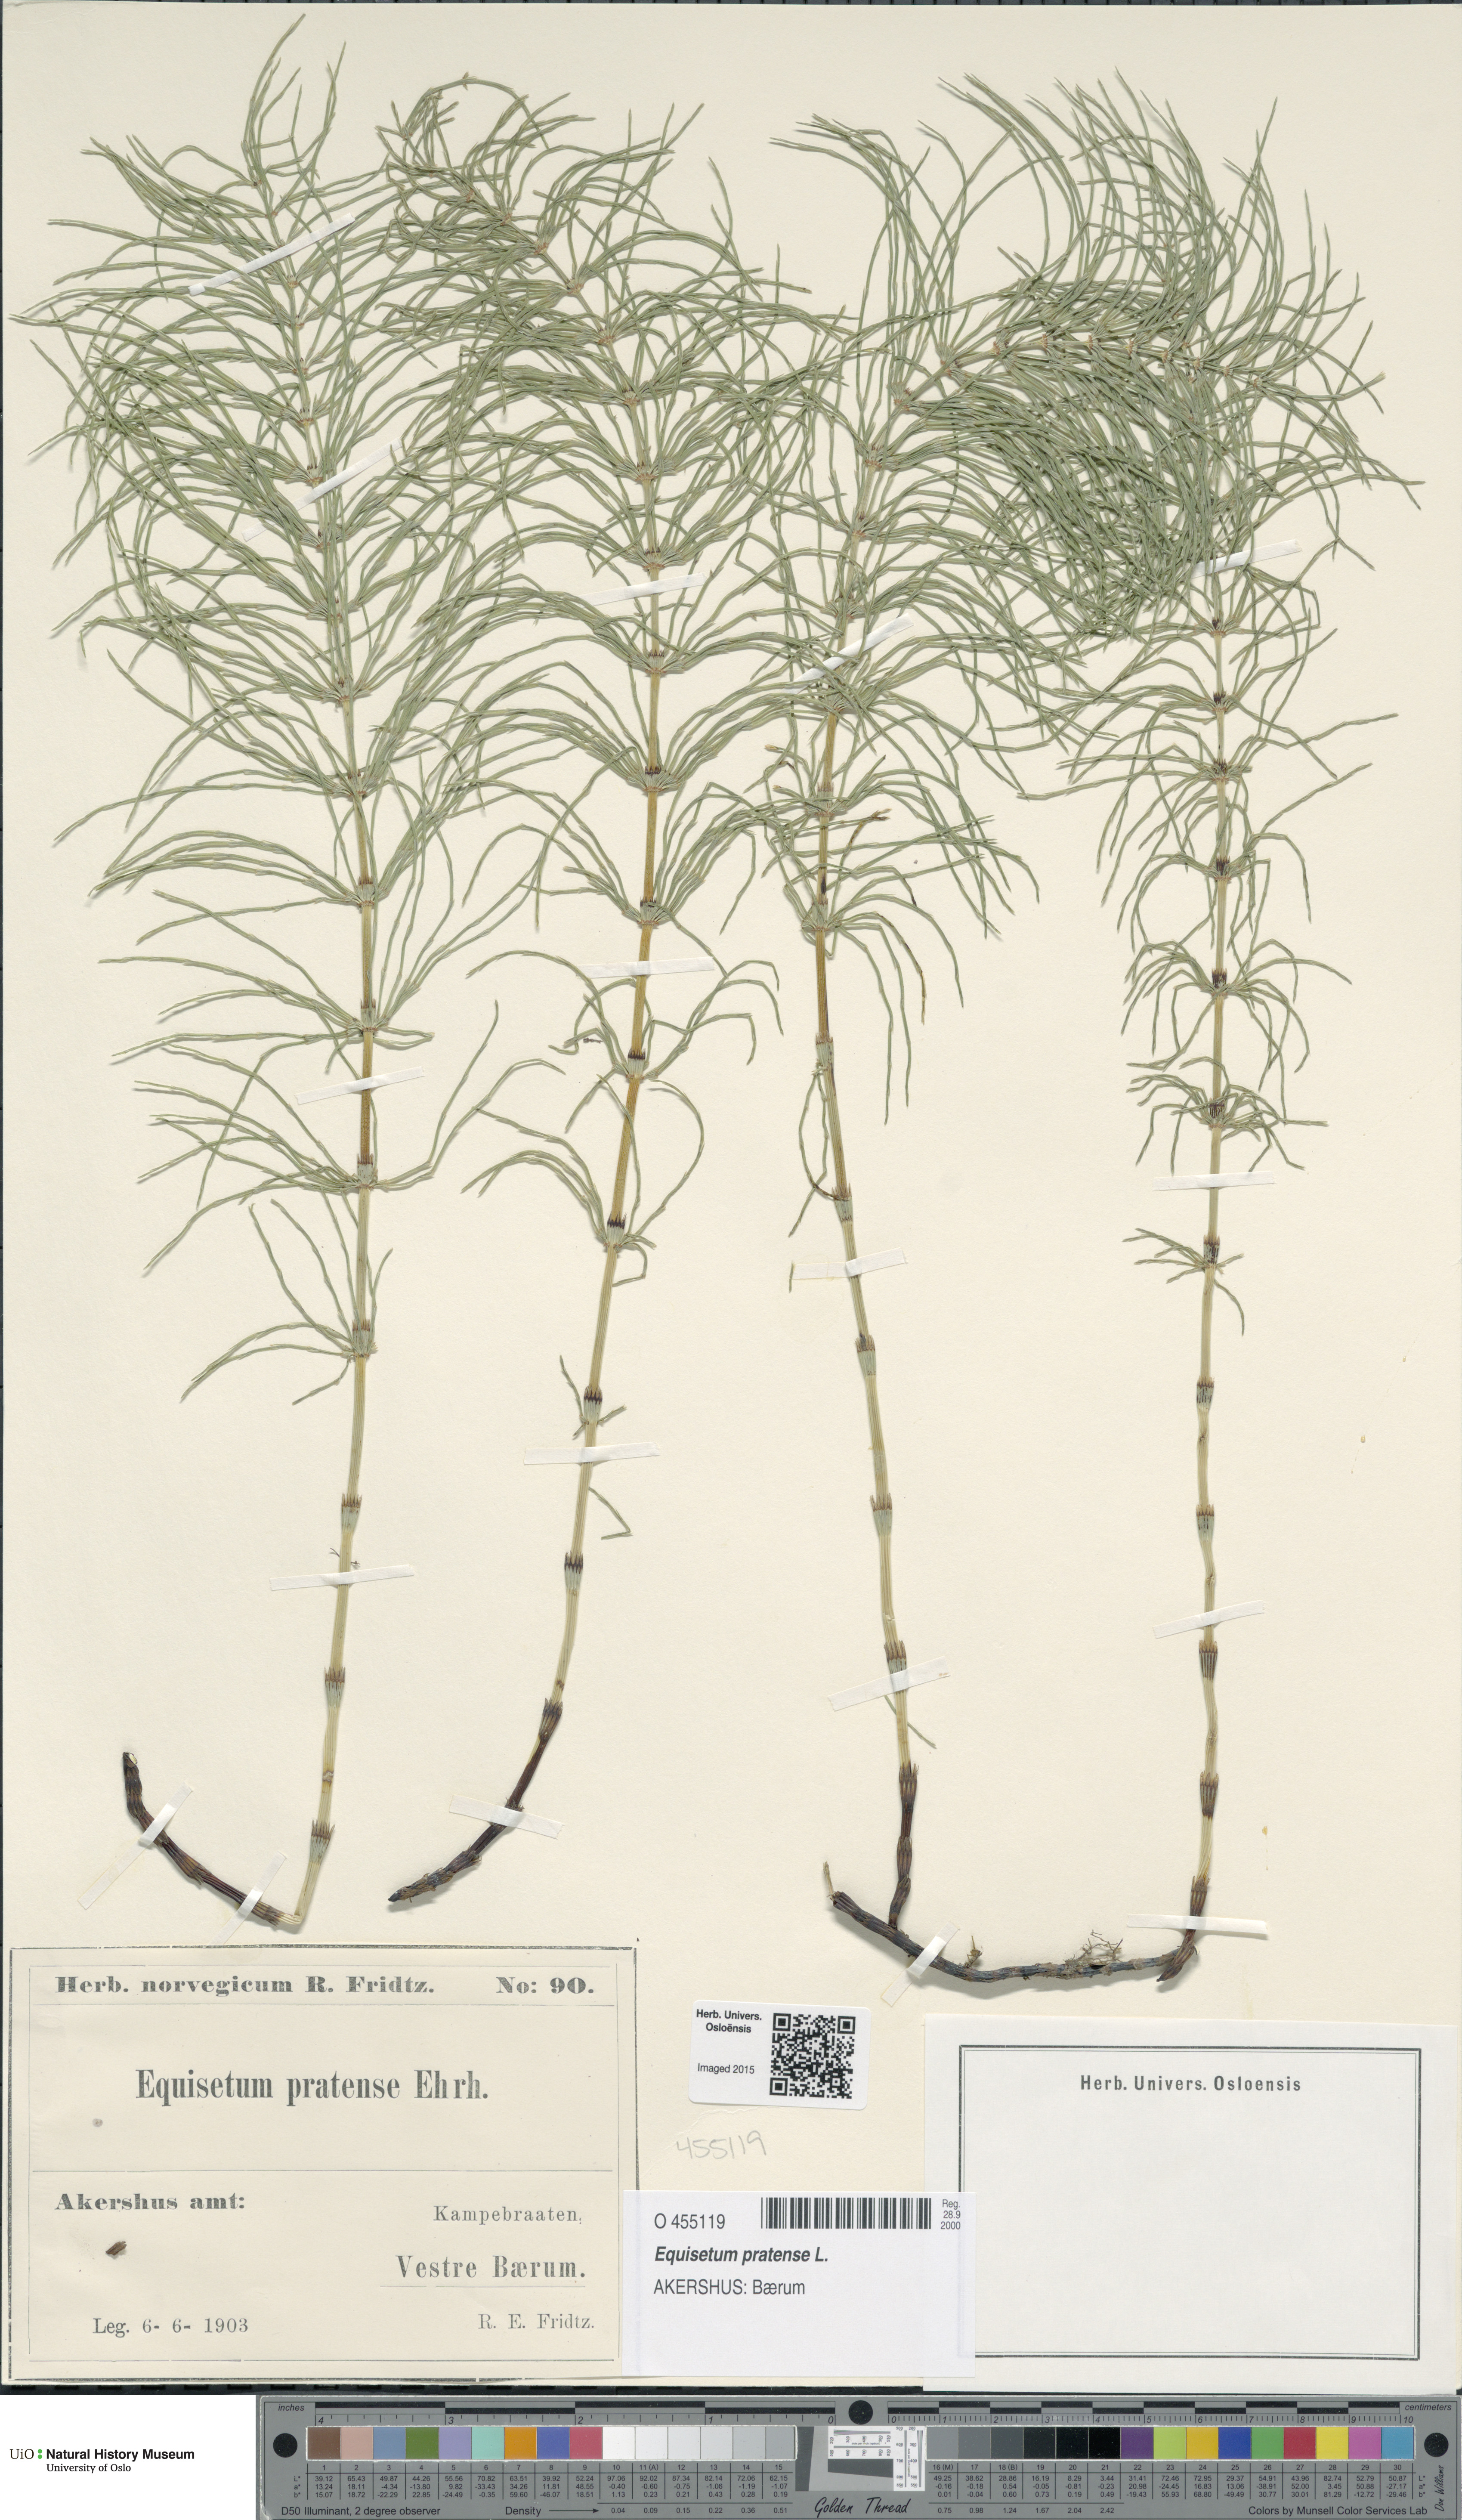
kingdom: Plantae
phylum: Tracheophyta
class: Polypodiopsida
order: Equisetales
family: Equisetaceae
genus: Equisetum
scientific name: Equisetum pratense
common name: Meadow horsetail
